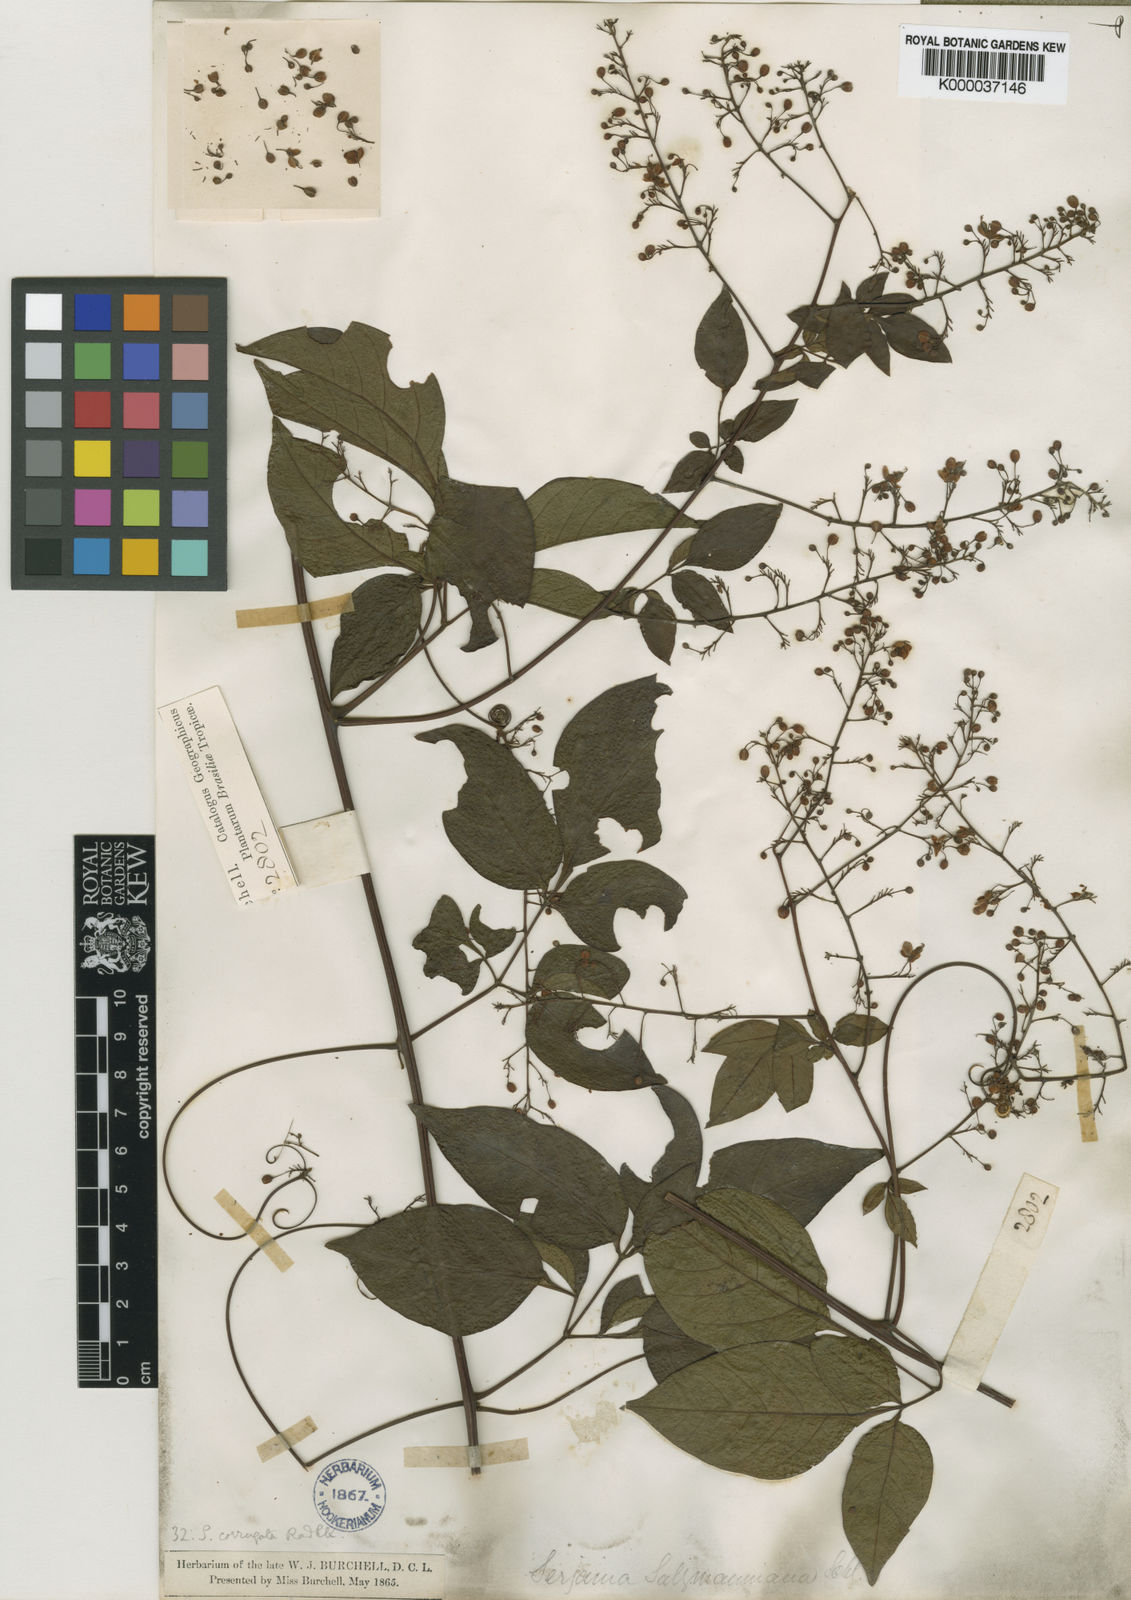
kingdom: Plantae
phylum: Tracheophyta
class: Magnoliopsida
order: Sapindales
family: Sapindaceae
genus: Serjania
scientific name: Serjania corrugata
